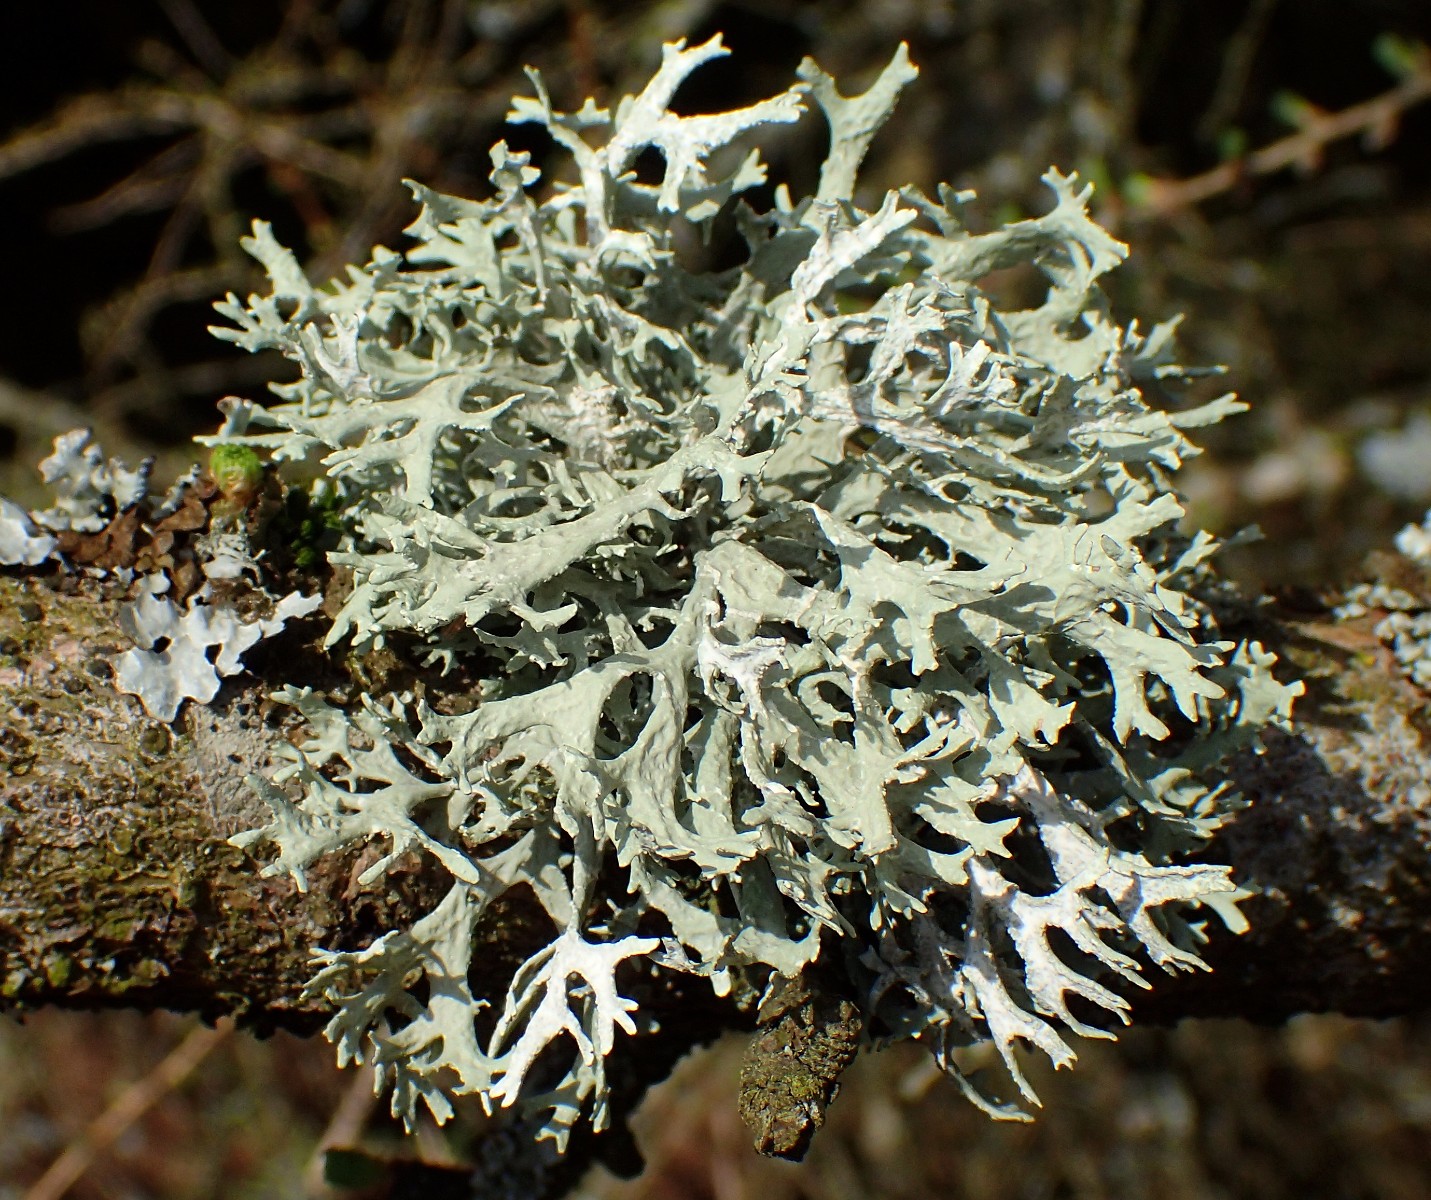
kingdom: Fungi
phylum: Ascomycota
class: Lecanoromycetes
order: Lecanorales
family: Parmeliaceae
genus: Evernia
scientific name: Evernia prunastri
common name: almindelig slåenlav
